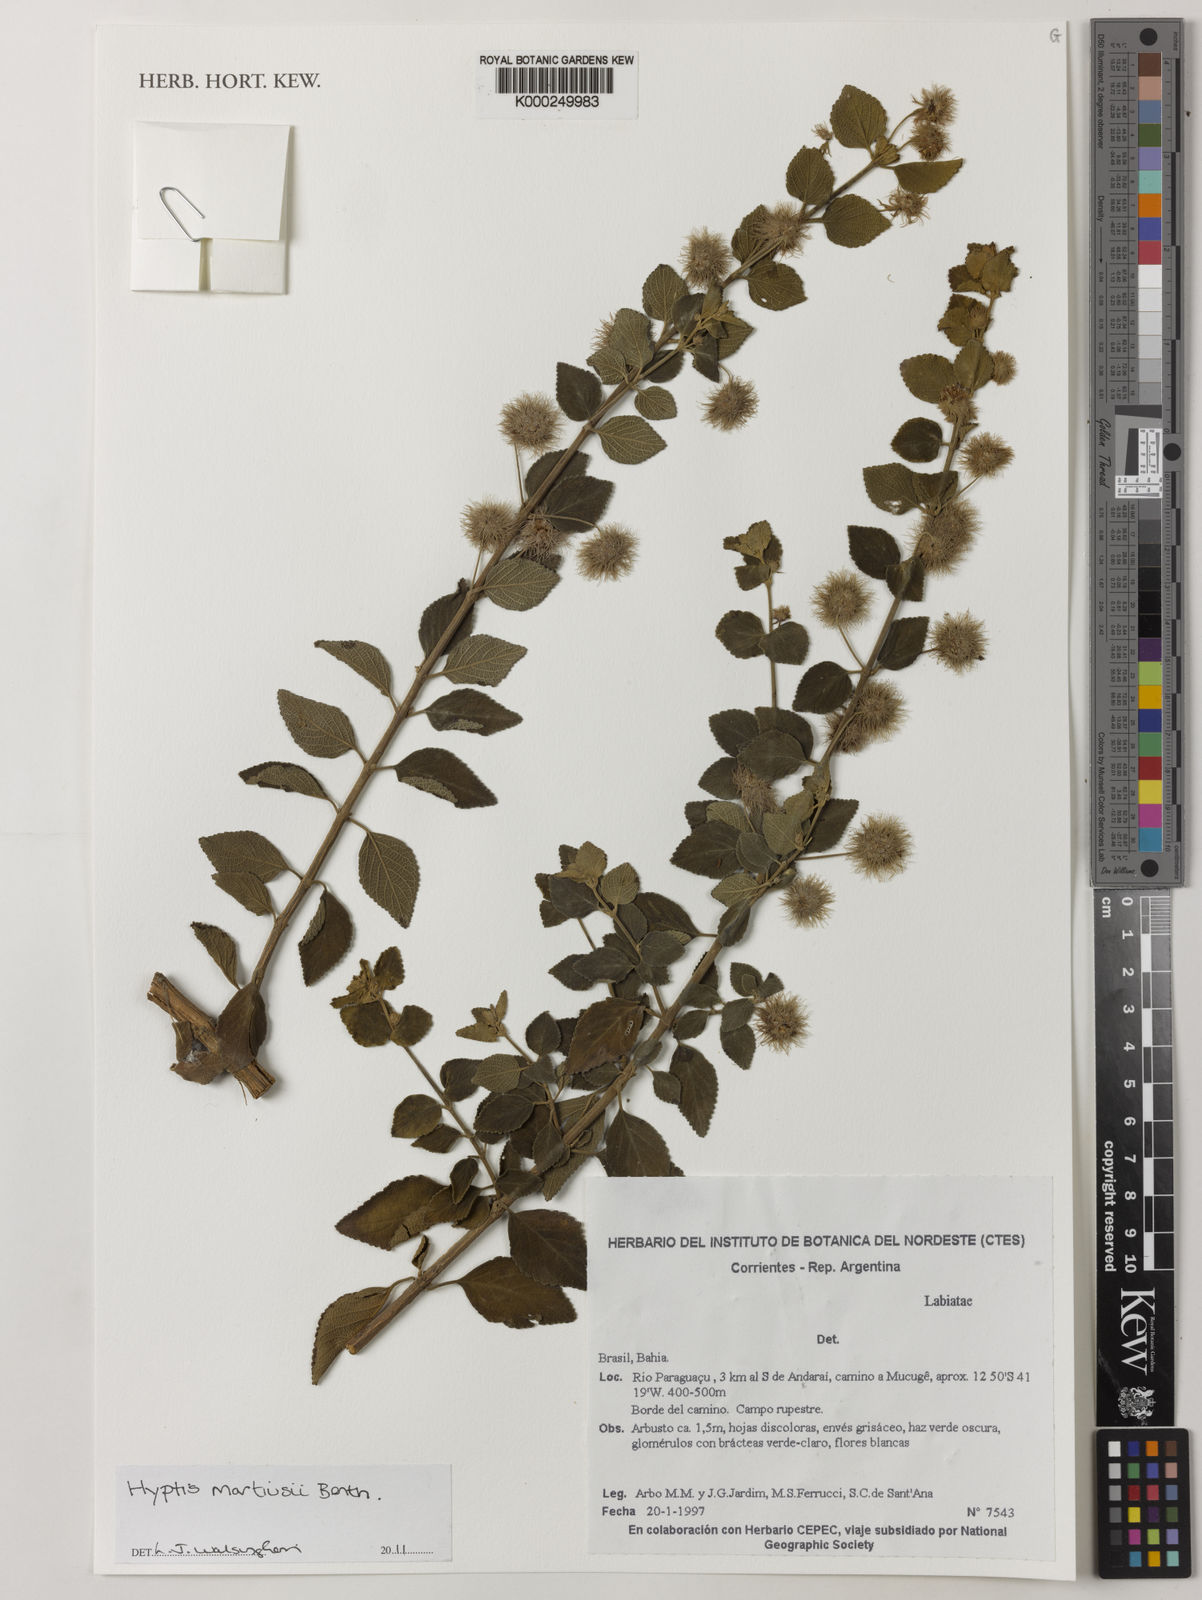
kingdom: Plantae
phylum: Tracheophyta
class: Magnoliopsida
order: Lamiales
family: Lamiaceae
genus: Medusantha
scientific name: Medusantha martiusii
